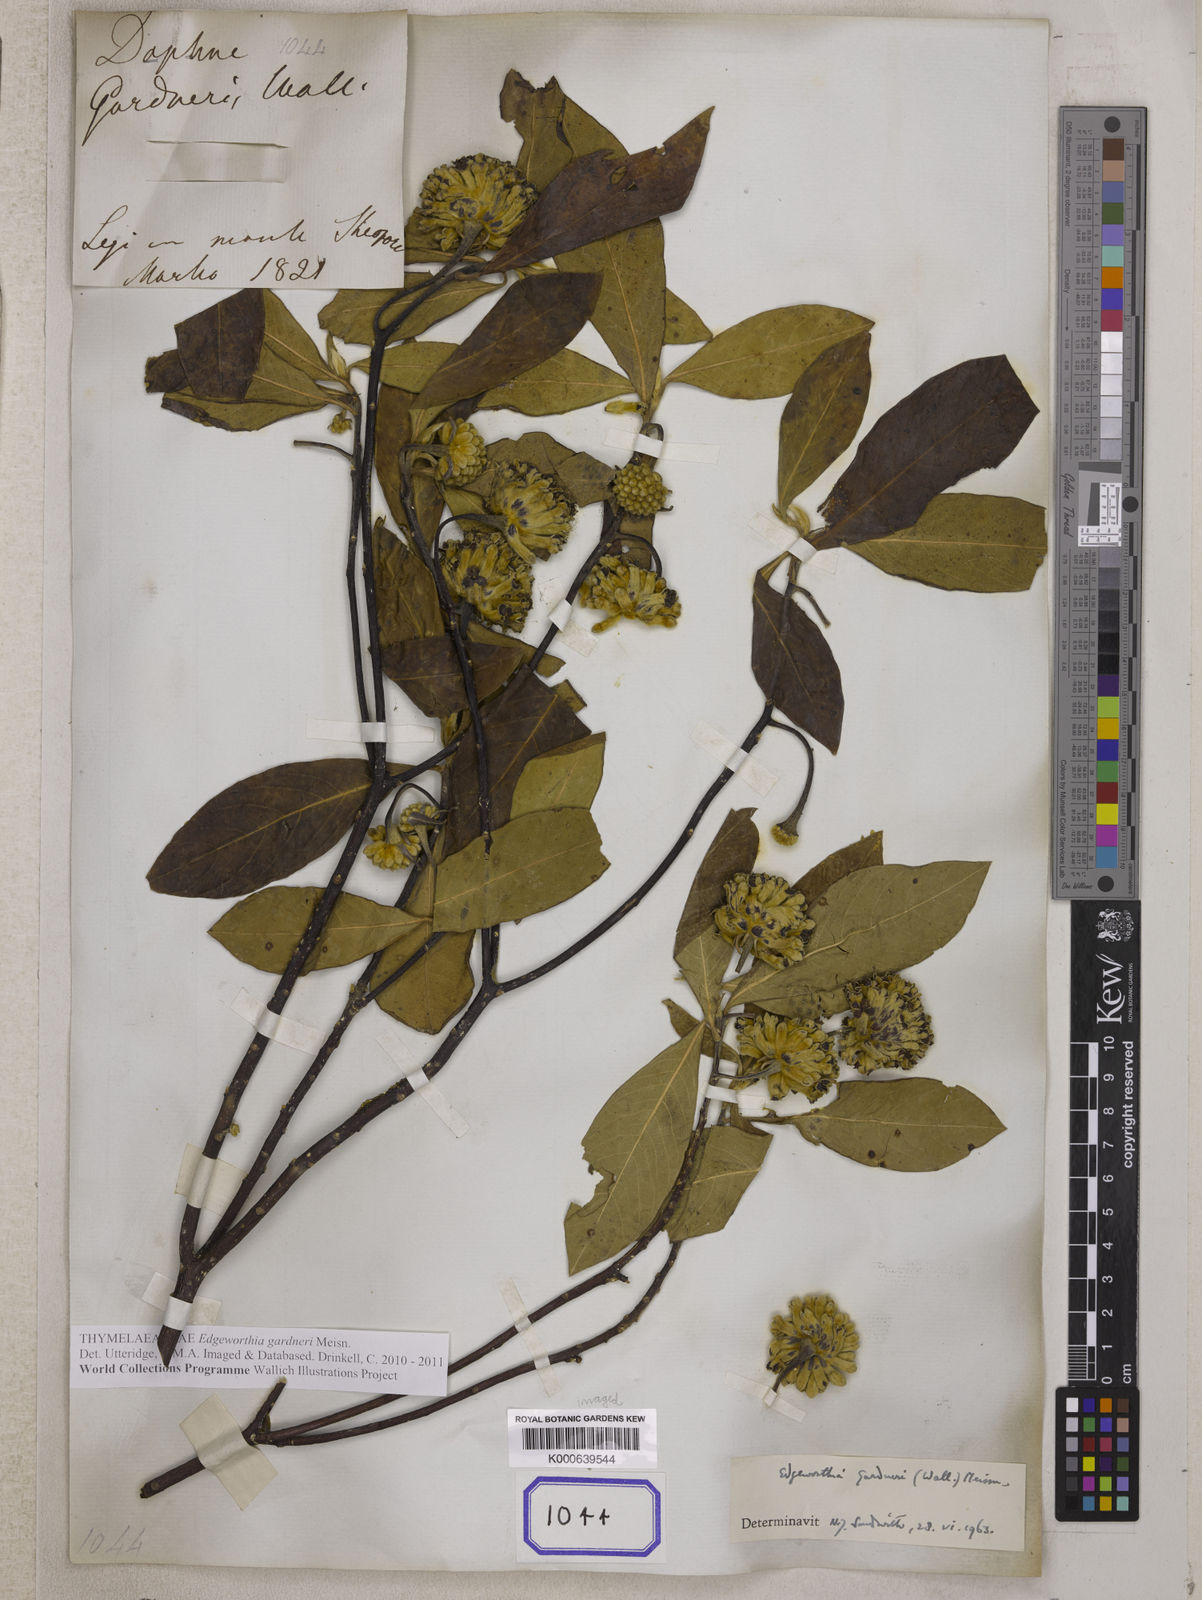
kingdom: Plantae
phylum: Tracheophyta
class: Magnoliopsida
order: Malvales
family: Thymelaeaceae
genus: Edgeworthia
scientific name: Edgeworthia gardneri
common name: Nepalese paperbush
